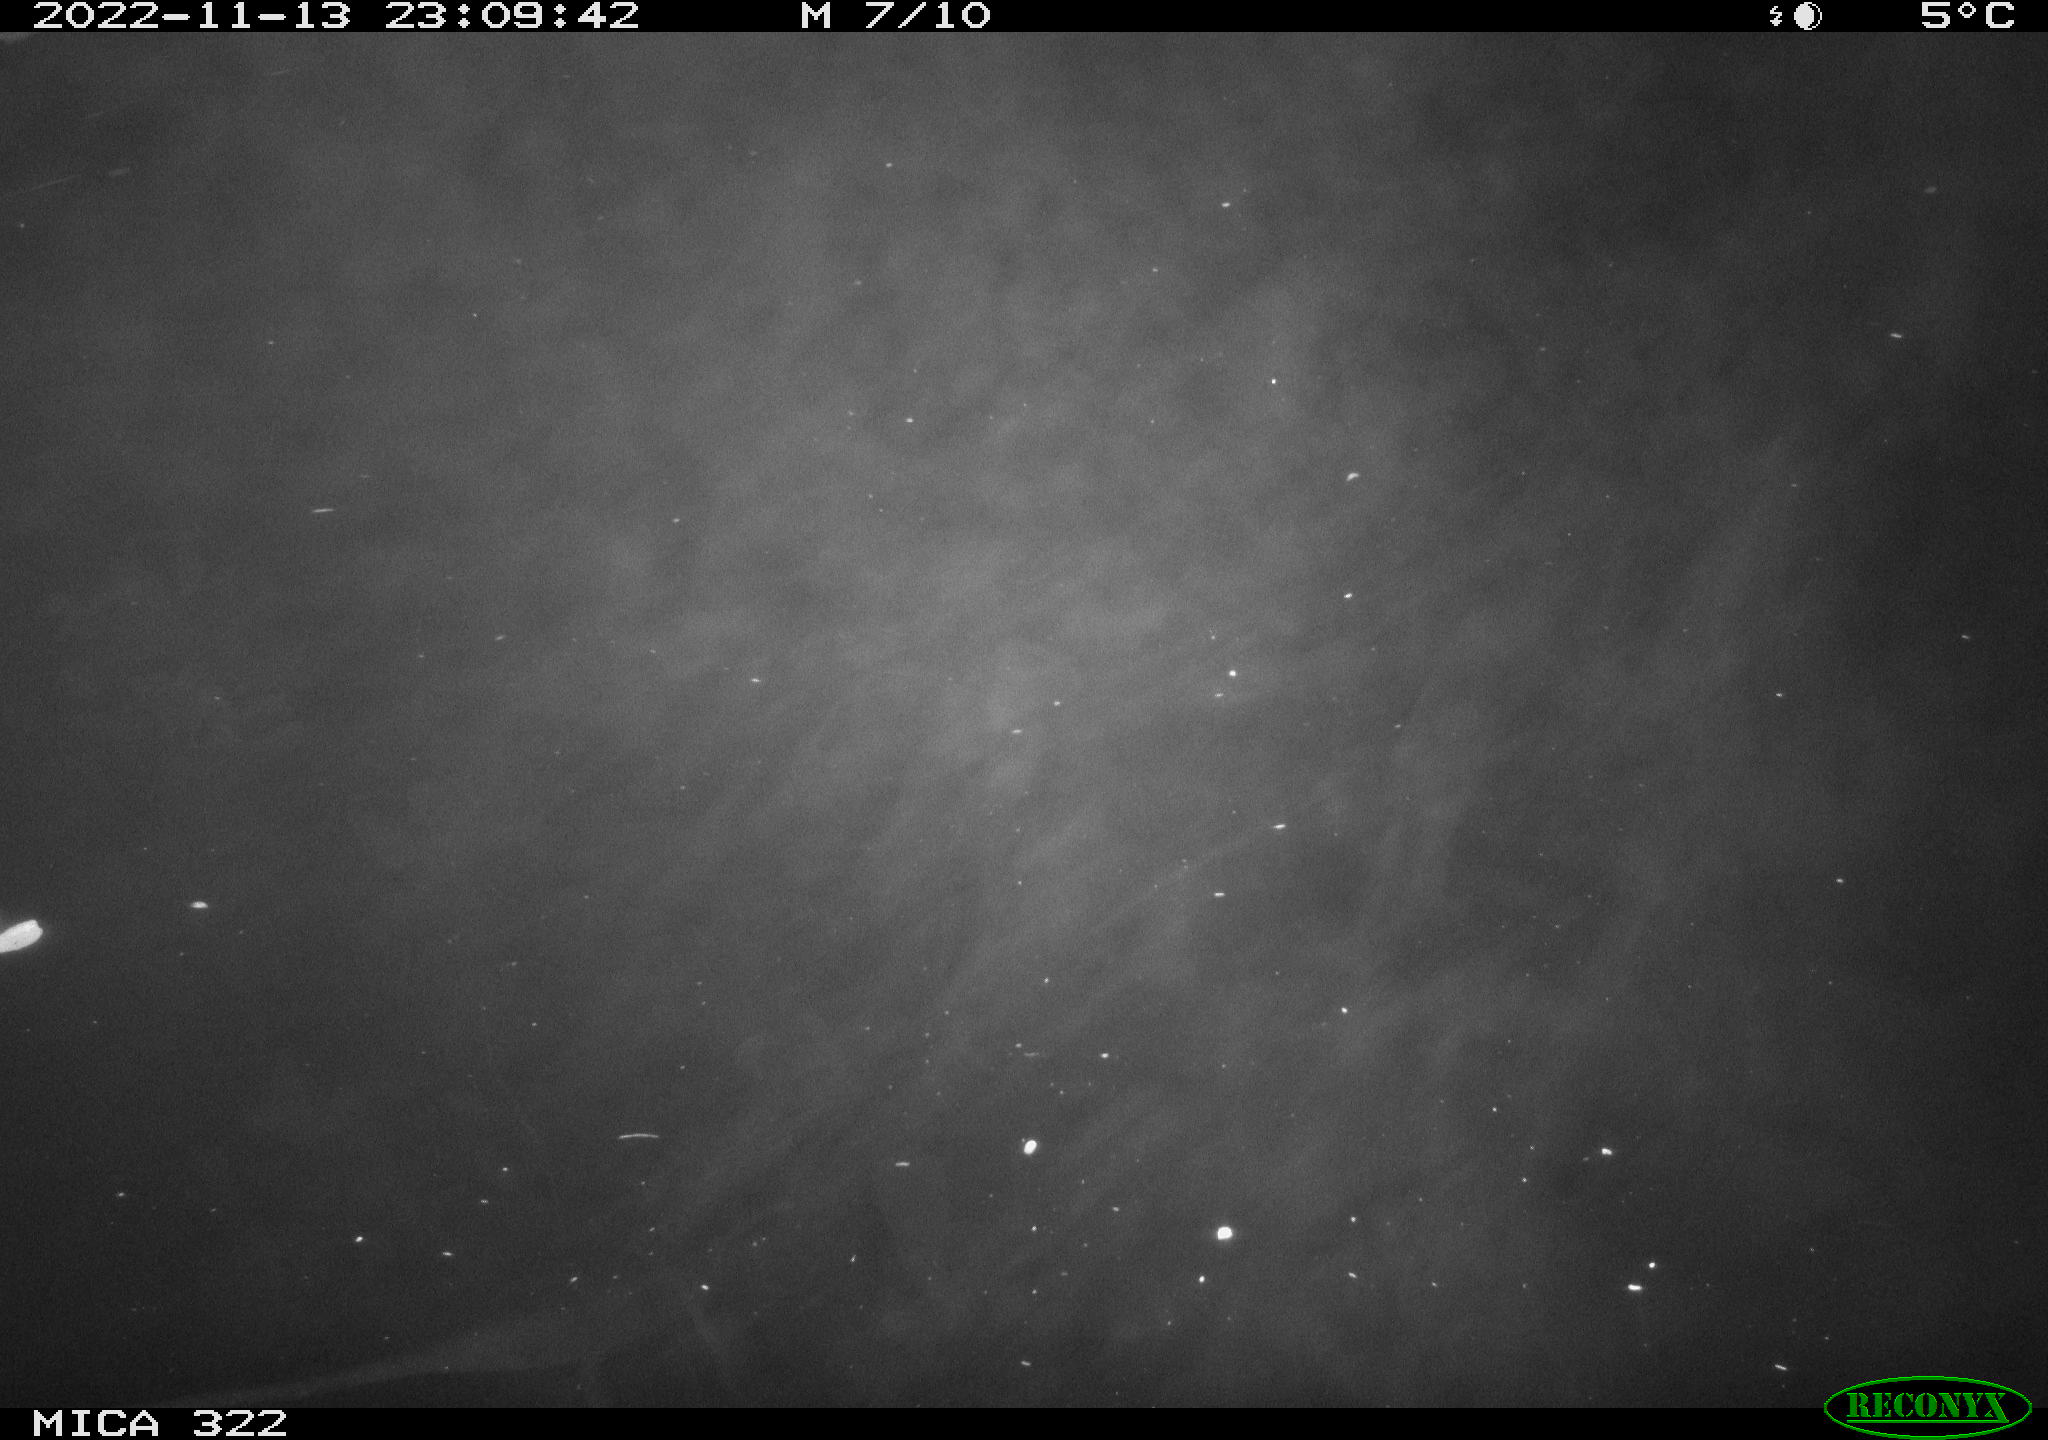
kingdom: Animalia
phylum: Chordata
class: Mammalia
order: Rodentia
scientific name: Rodentia
